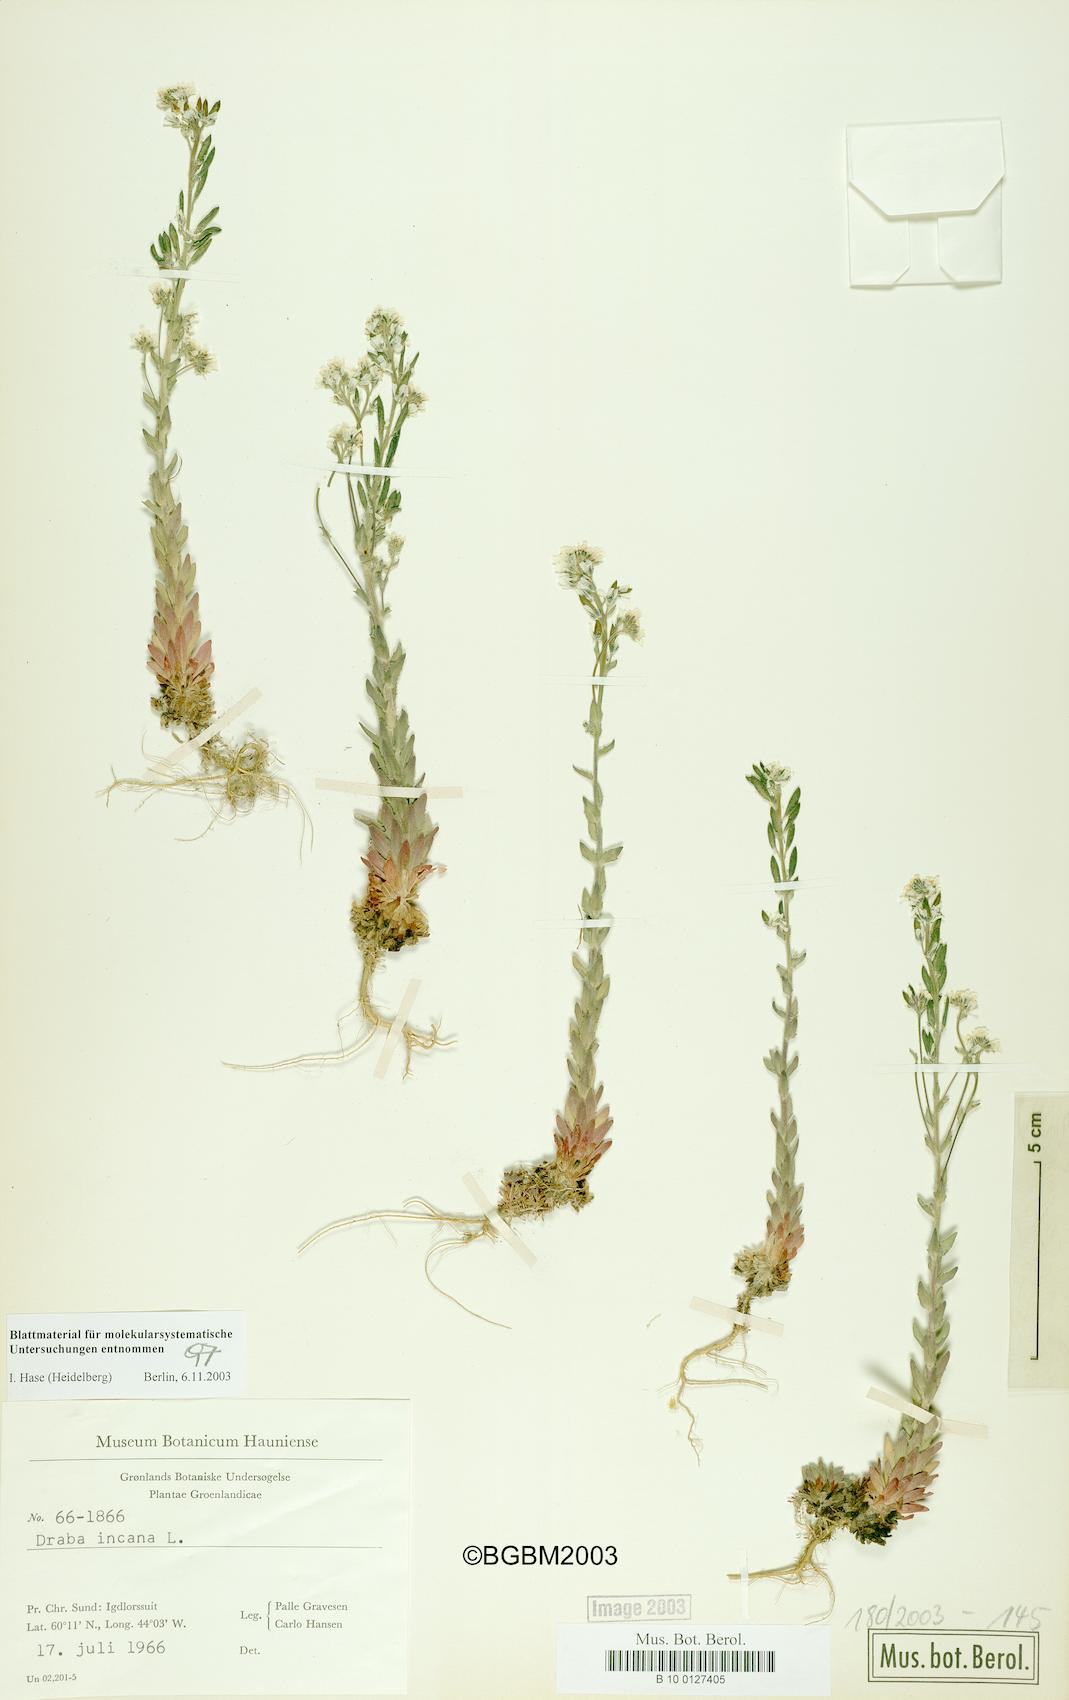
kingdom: Plantae
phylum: Tracheophyta
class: Magnoliopsida
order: Brassicales
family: Brassicaceae
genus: Draba
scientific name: Draba incana
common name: Hoary whitlow-grass
